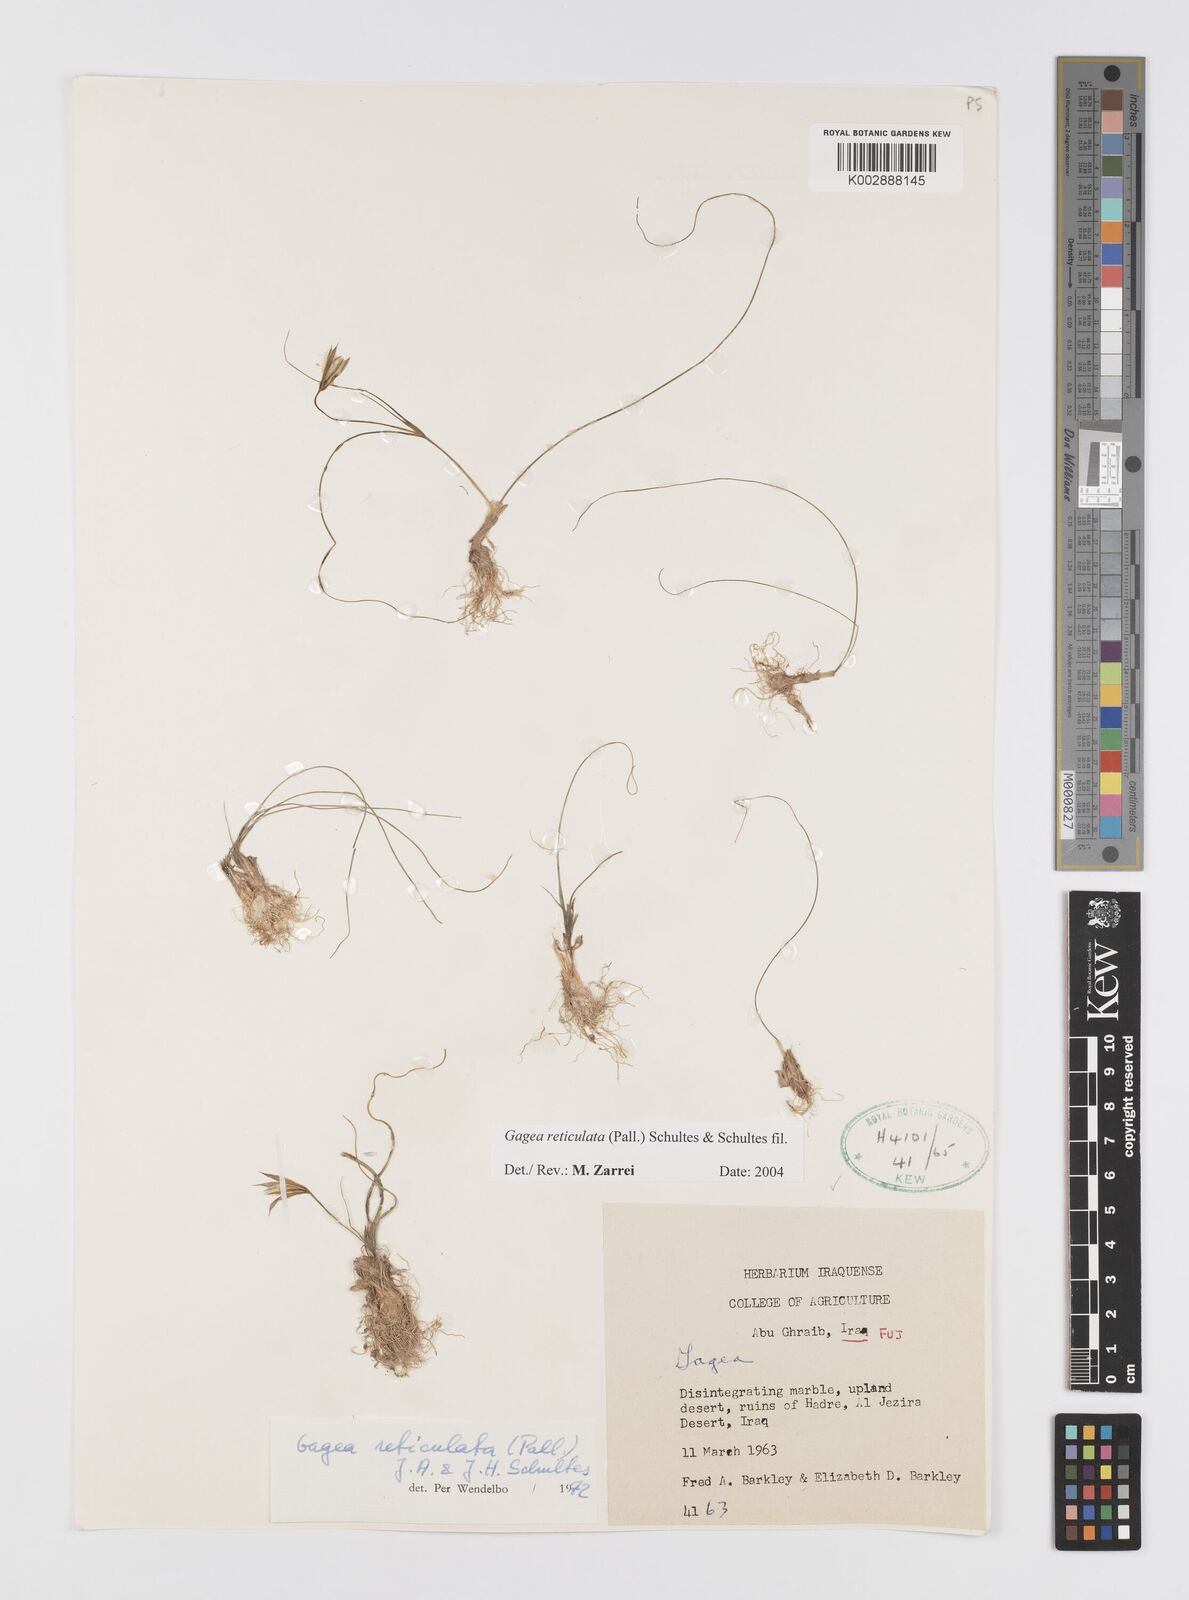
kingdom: Plantae
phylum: Tracheophyta
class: Liliopsida
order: Liliales
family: Liliaceae
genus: Gagea
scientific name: Gagea reticulata
